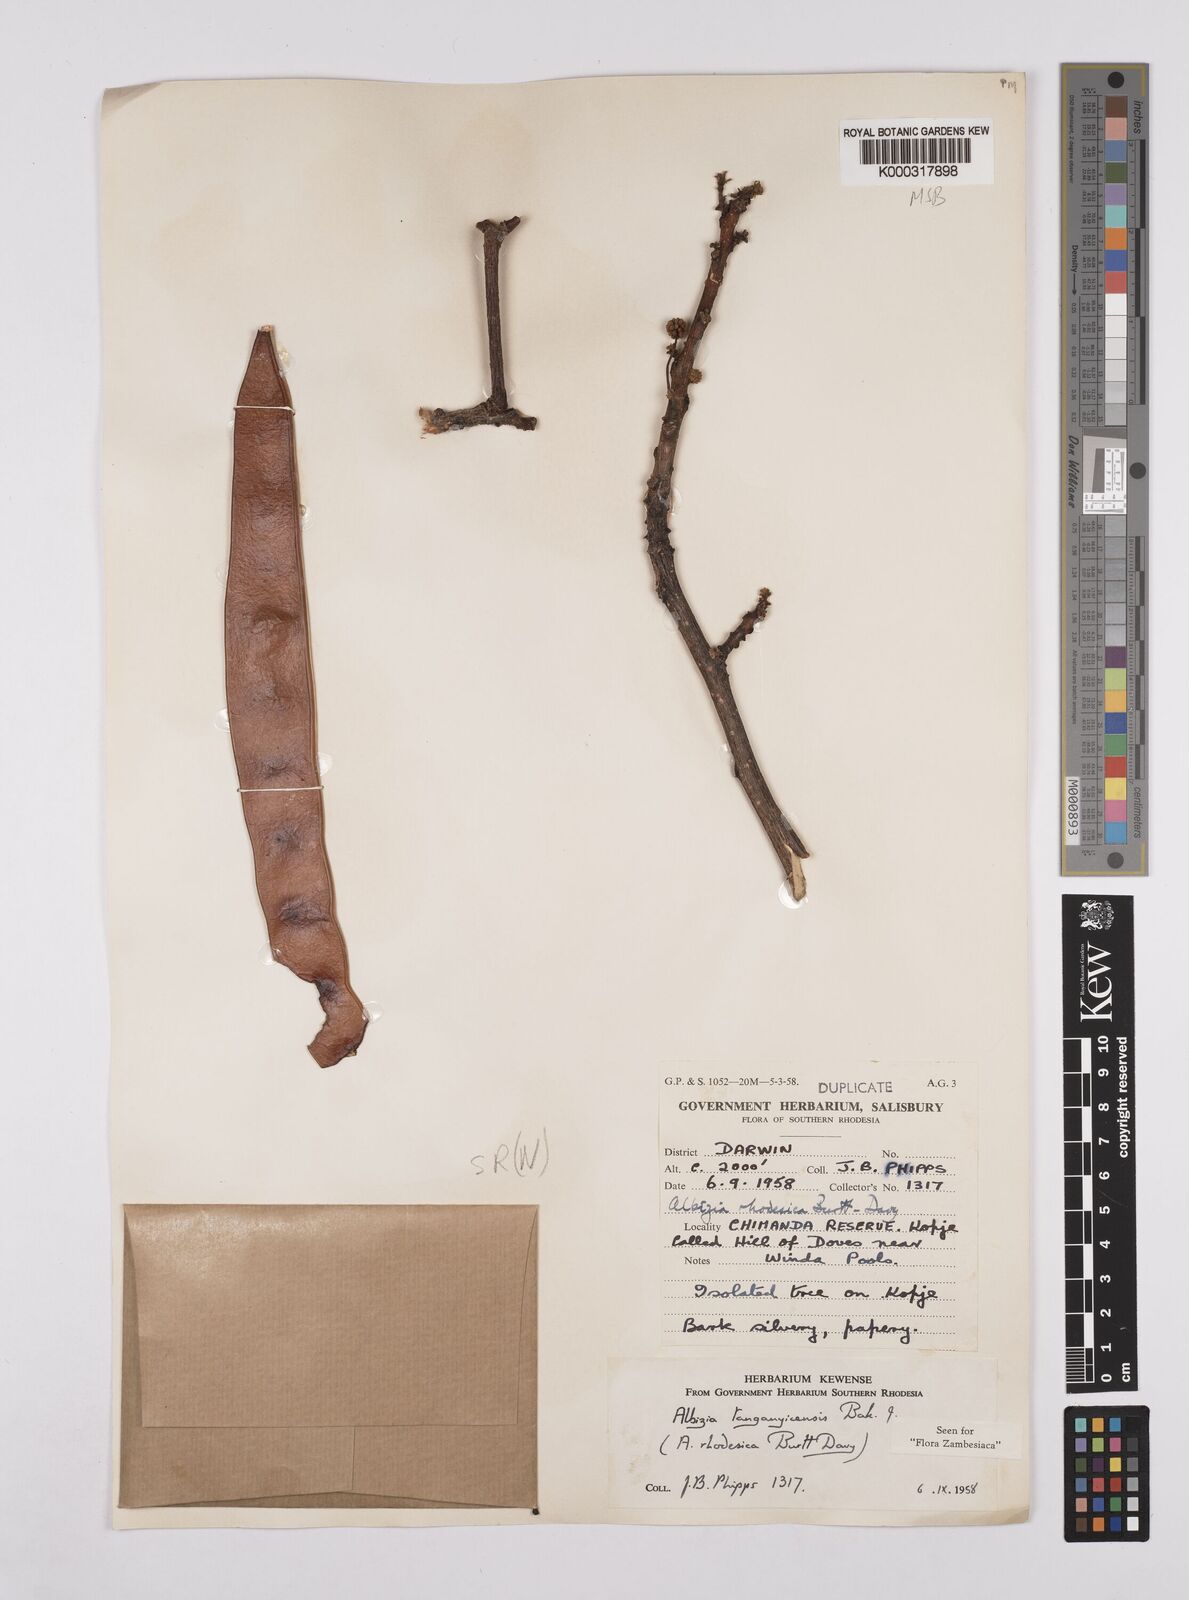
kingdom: Plantae
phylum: Tracheophyta
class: Magnoliopsida
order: Fabales
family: Fabaceae
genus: Albizia
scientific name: Albizia tanganyicensis
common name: Paperbark false thorn
